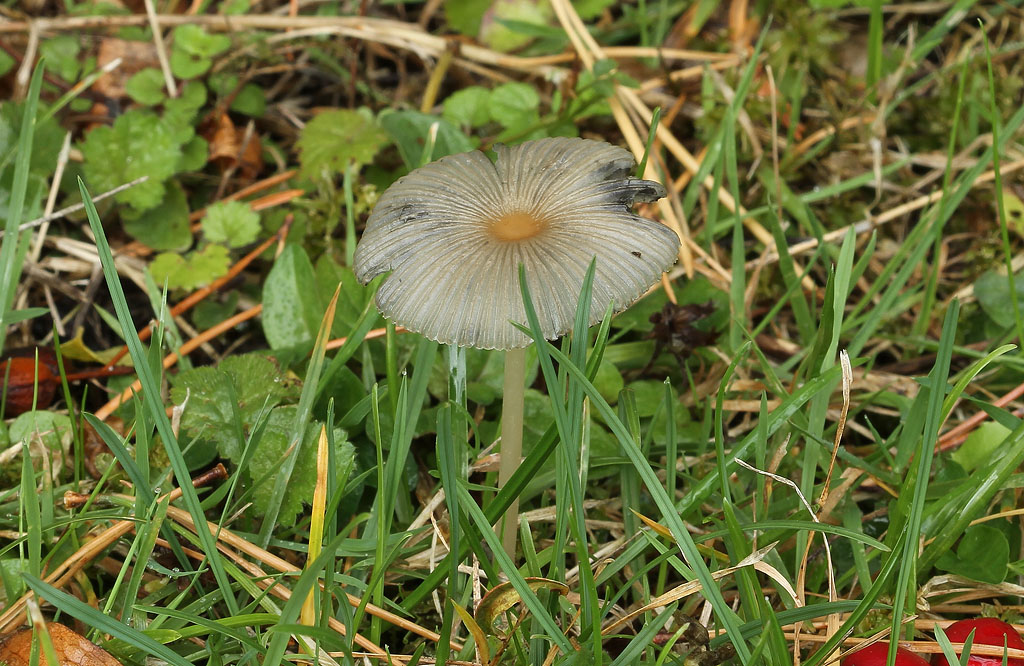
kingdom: Fungi
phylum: Basidiomycota
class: Agaricomycetes
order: Agaricales
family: Psathyrellaceae
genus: Parasola
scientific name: Parasola plicatilis
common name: plæne-hjulhat
